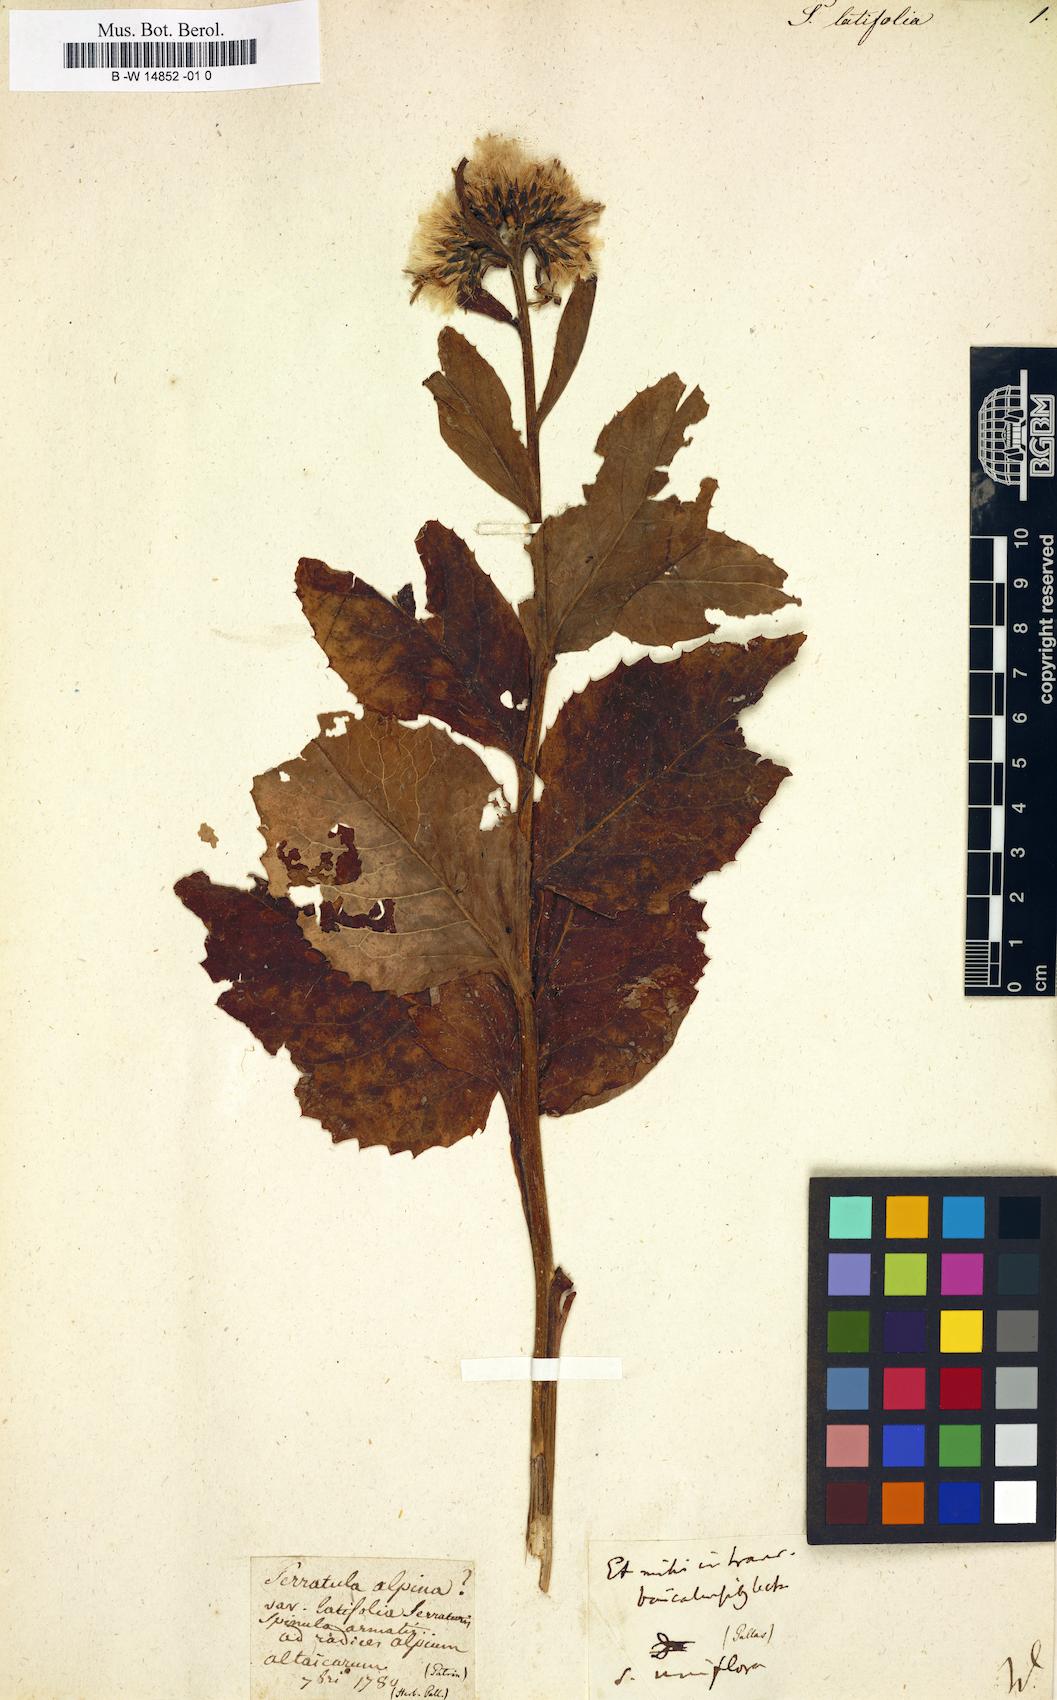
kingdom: Plantae
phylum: Tracheophyta
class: Magnoliopsida
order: Asterales
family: Asteraceae
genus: Klasea
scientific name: Klasea latifolia
